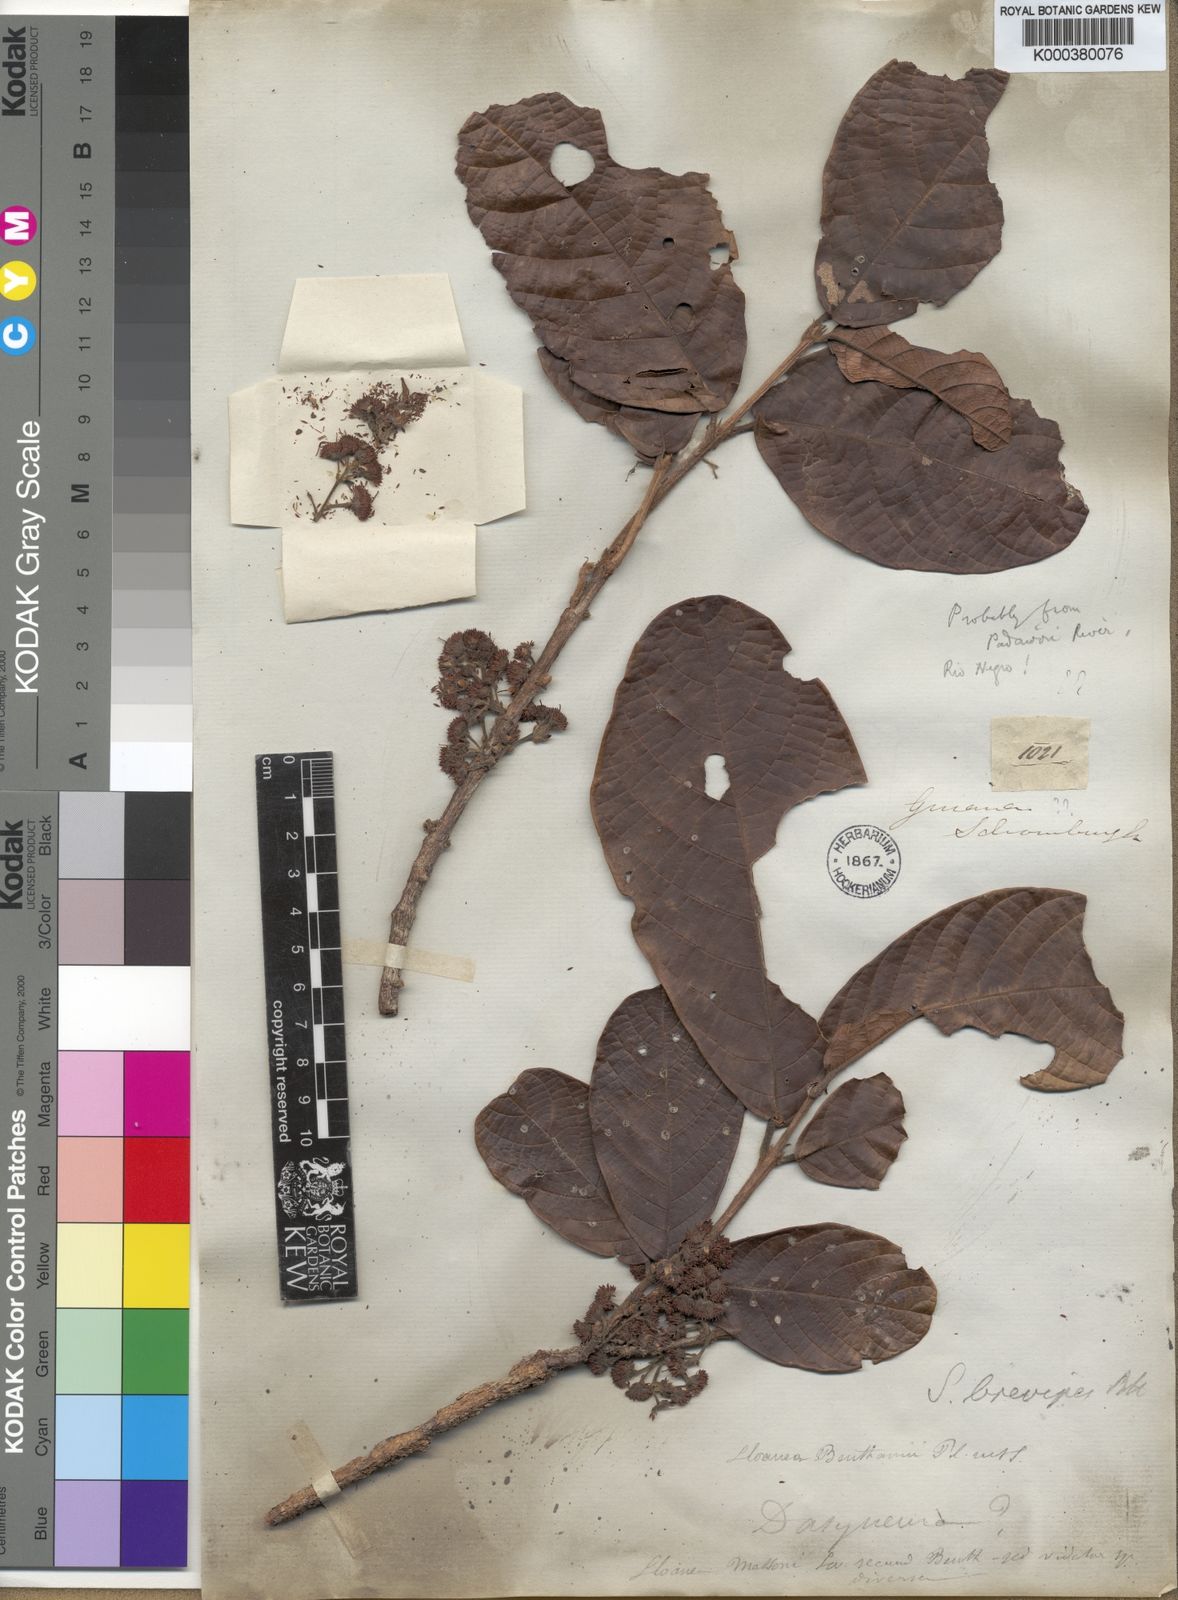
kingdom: Plantae
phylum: Tracheophyta
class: Magnoliopsida
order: Oxalidales
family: Elaeocarpaceae
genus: Sloanea
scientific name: Sloanea brevipes
